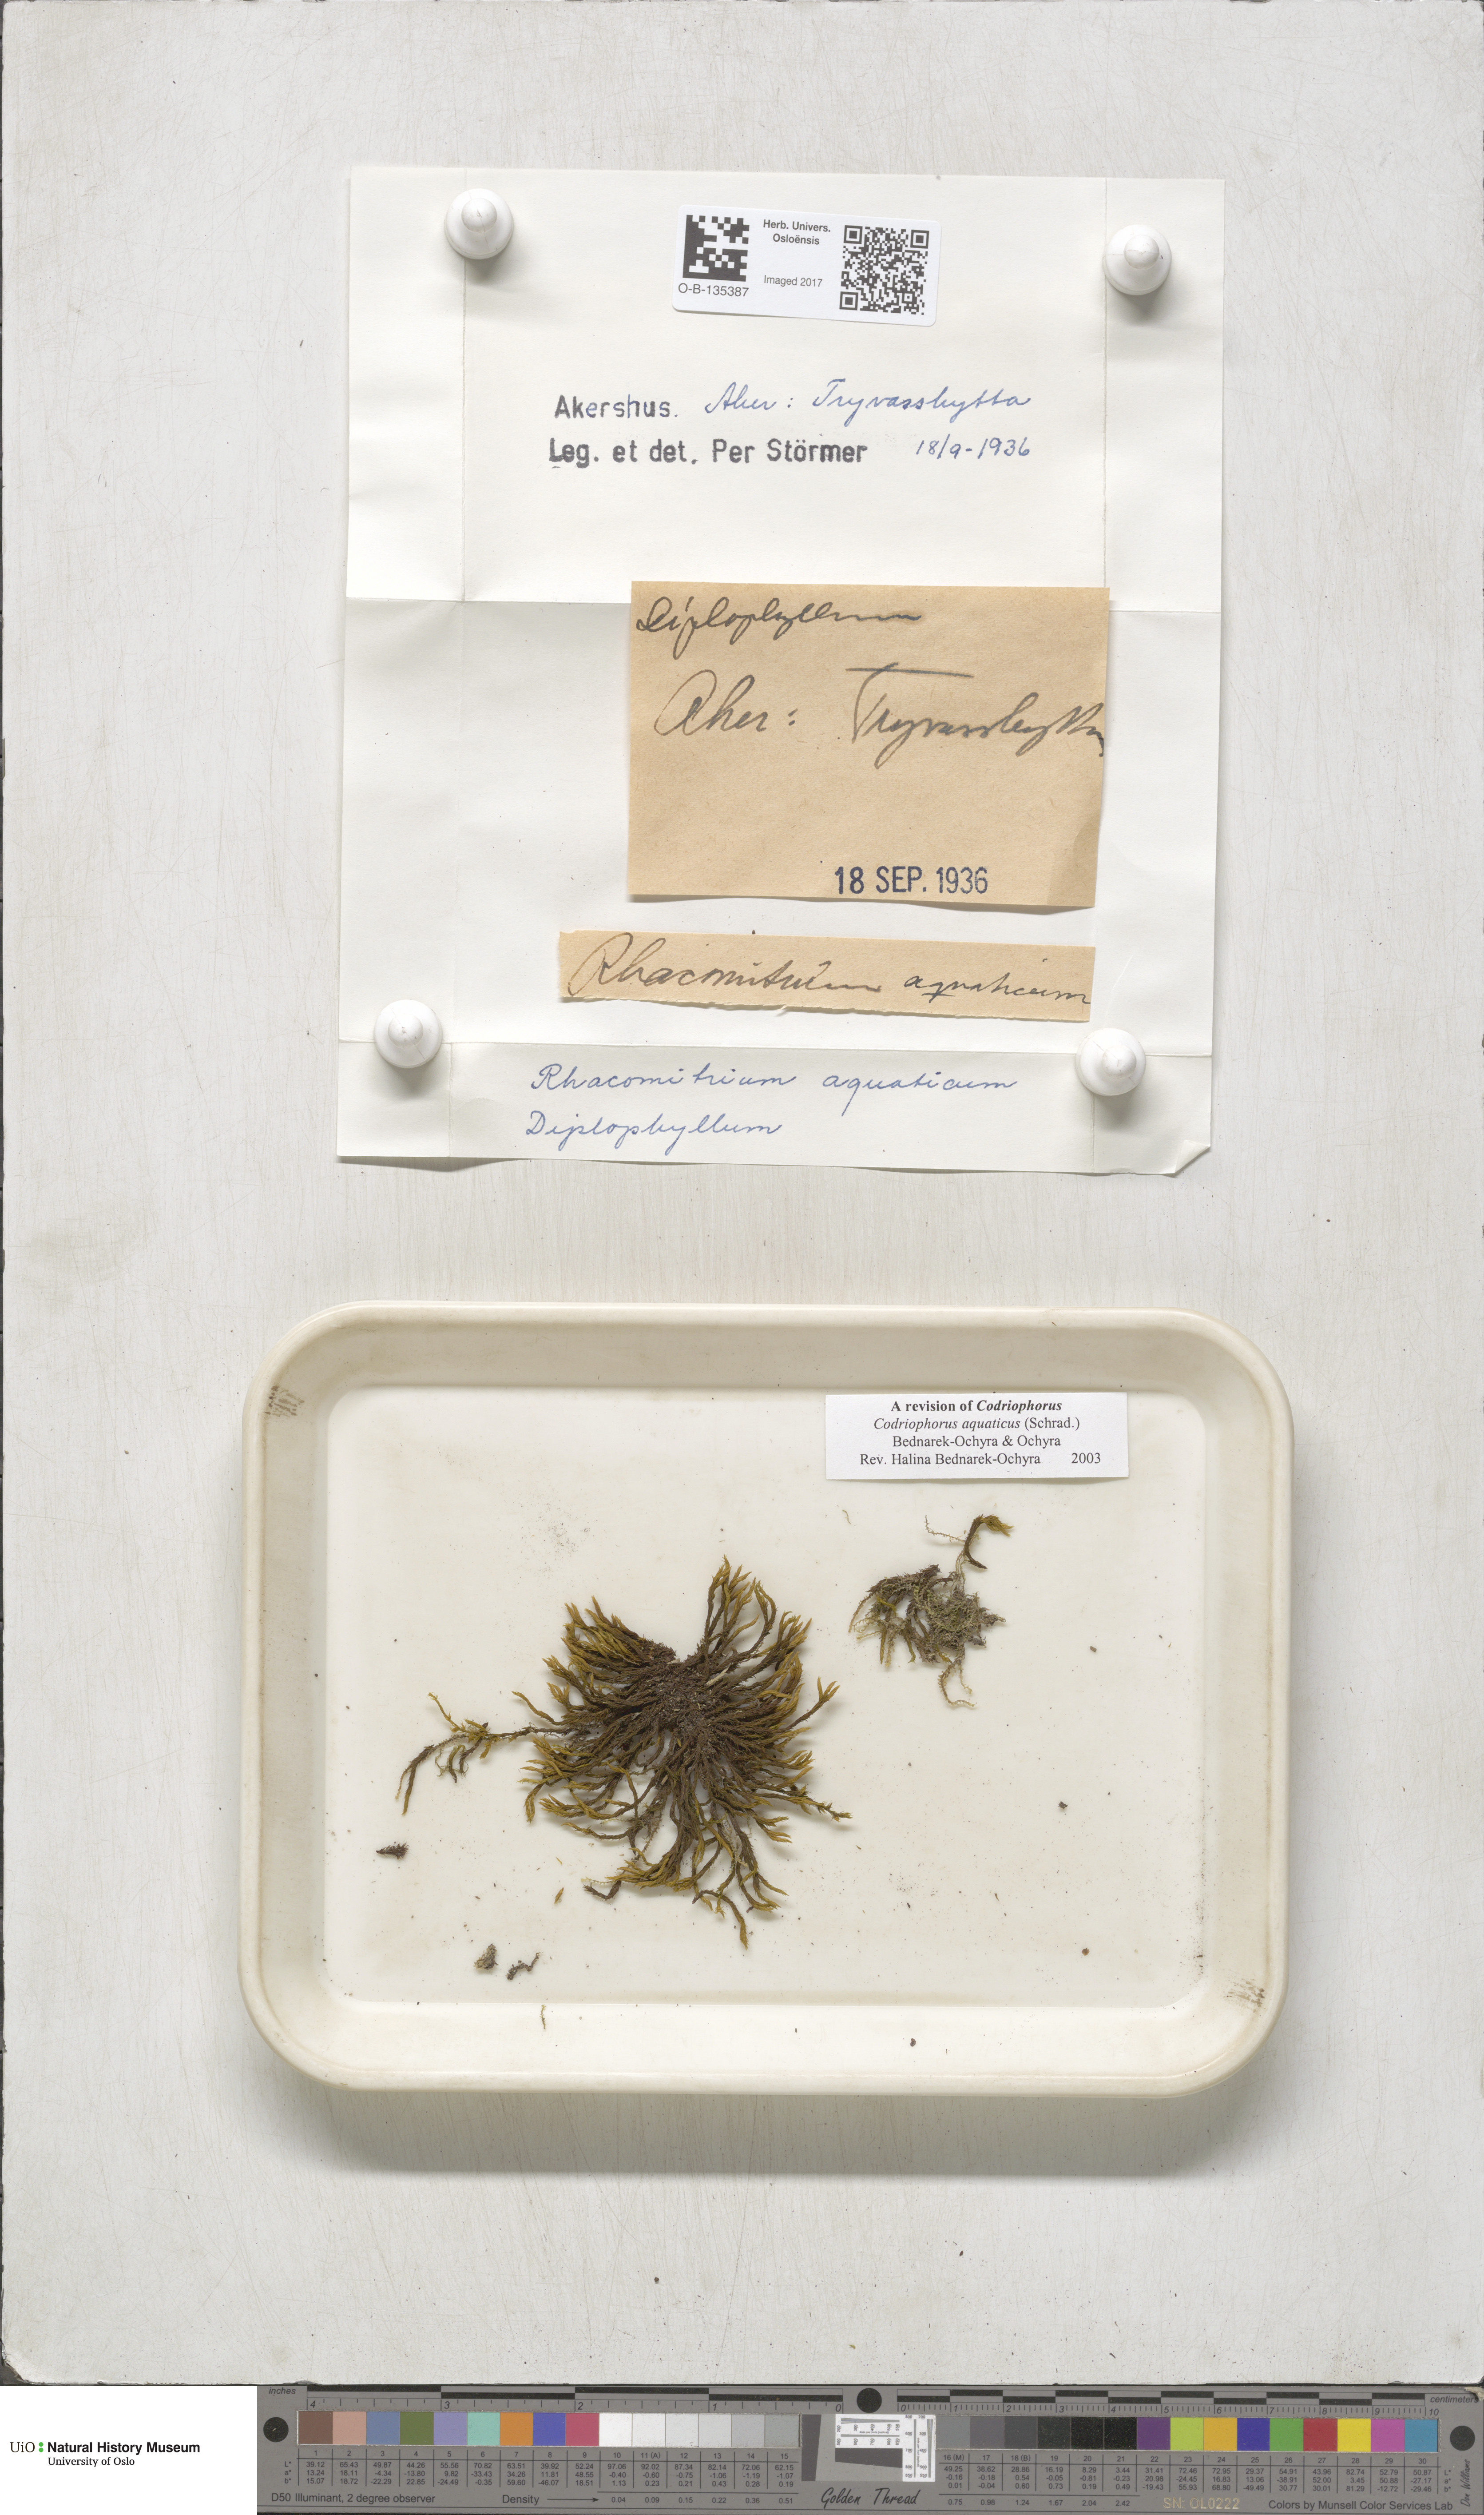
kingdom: Plantae
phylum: Bryophyta
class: Bryopsida
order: Grimmiales
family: Grimmiaceae
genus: Codriophorus
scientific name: Codriophorus aquaticus
